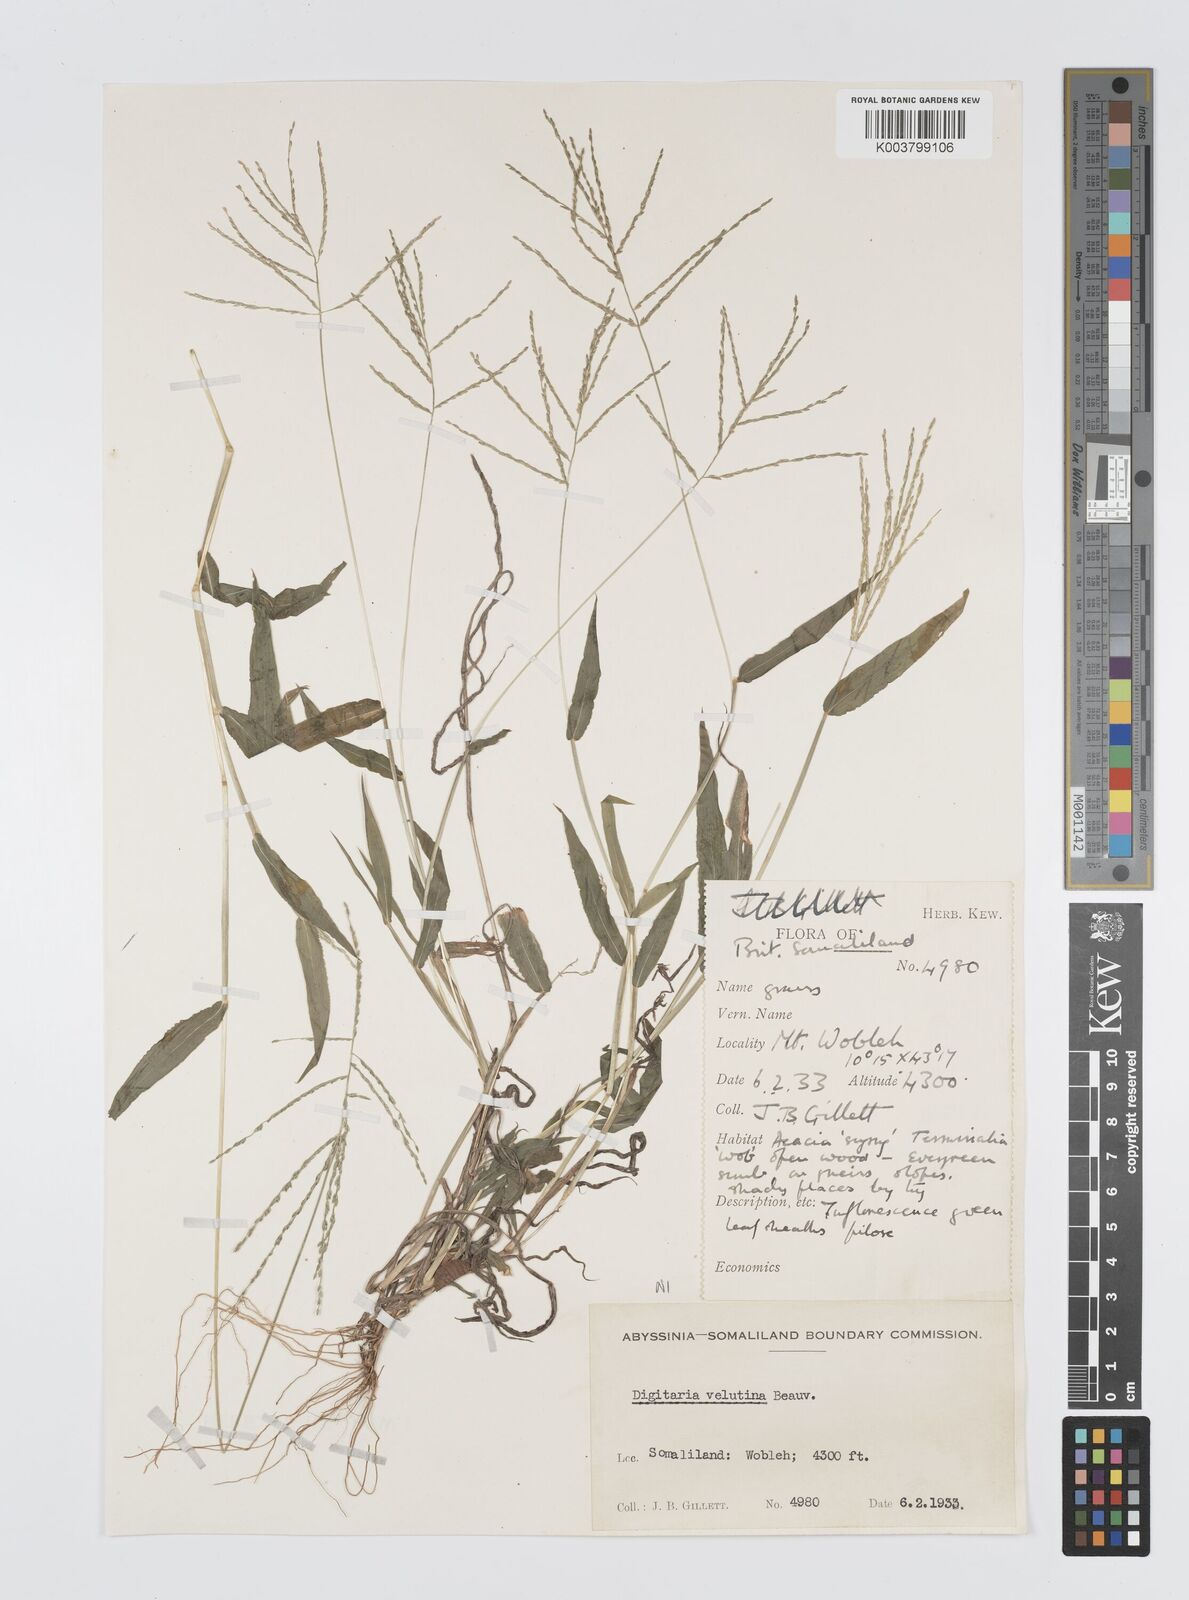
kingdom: Plantae
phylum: Tracheophyta
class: Liliopsida
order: Poales
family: Poaceae
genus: Digitaria
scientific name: Digitaria velutina
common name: Long-plume finger grass
